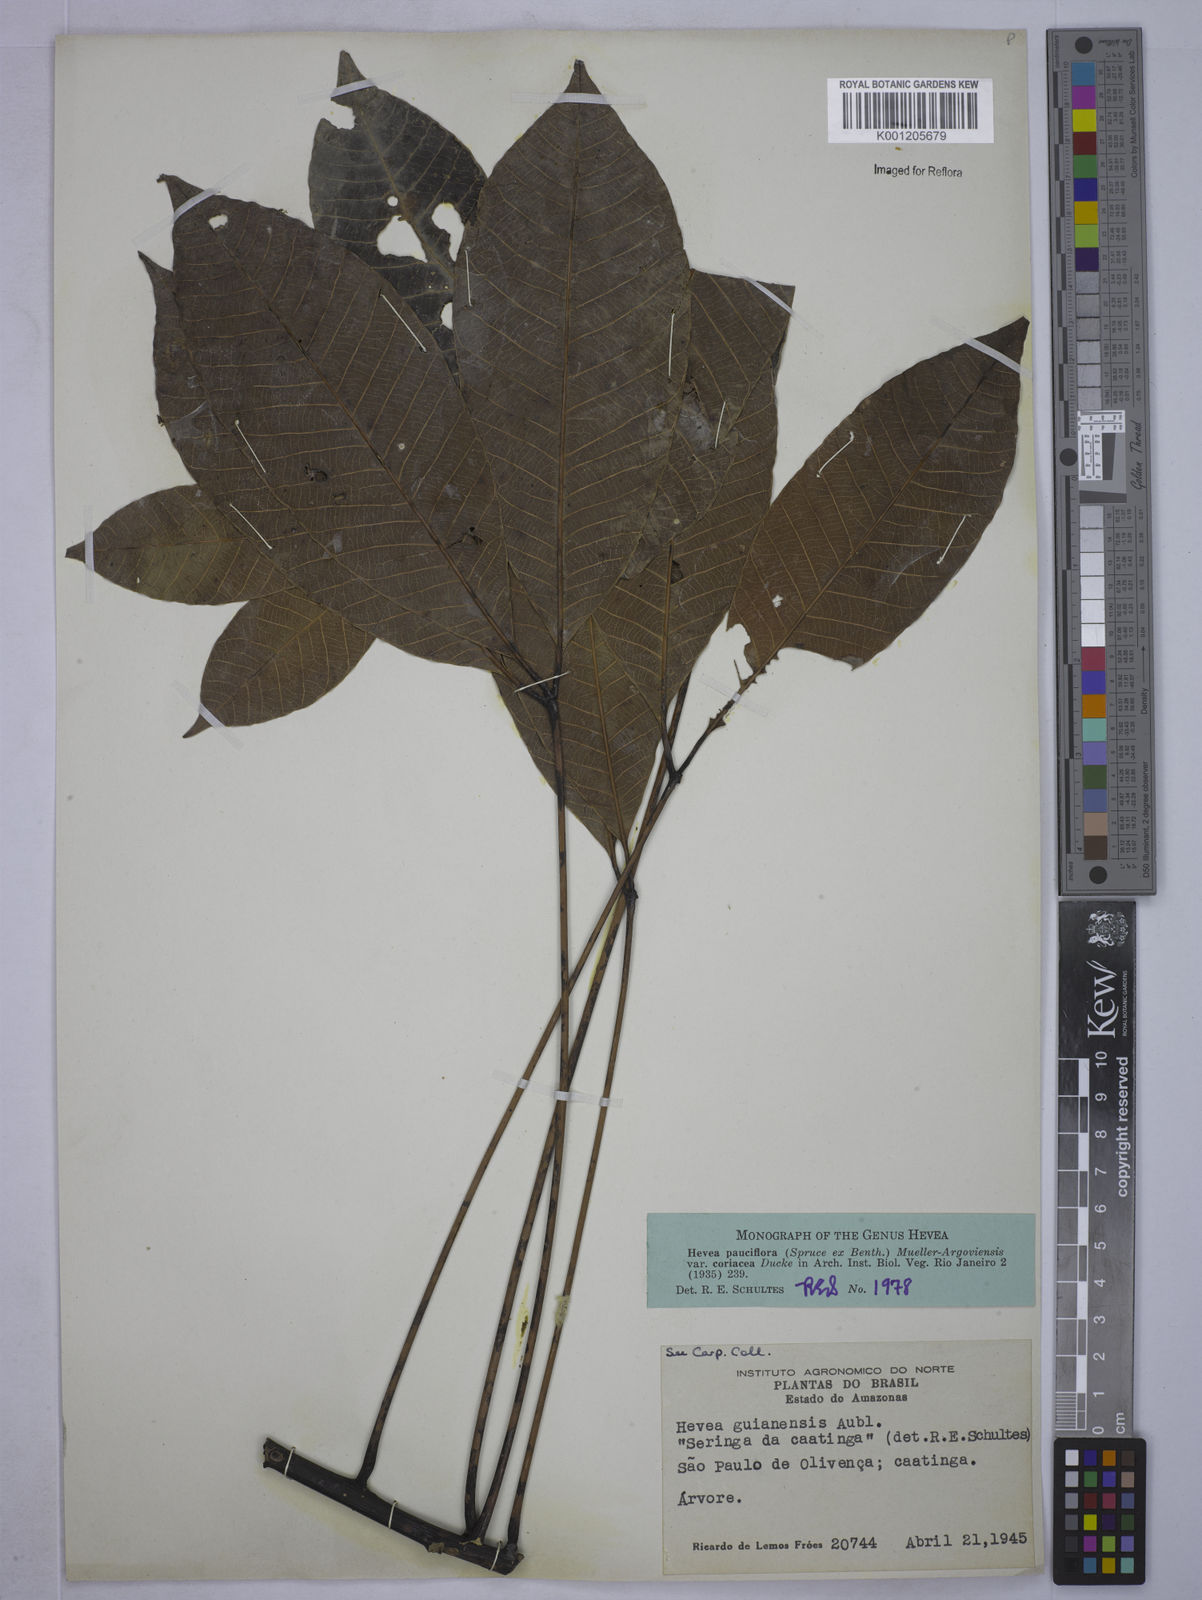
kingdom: Plantae
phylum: Tracheophyta
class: Magnoliopsida
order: Malpighiales
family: Euphorbiaceae
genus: Hevea
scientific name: Hevea pauciflora
